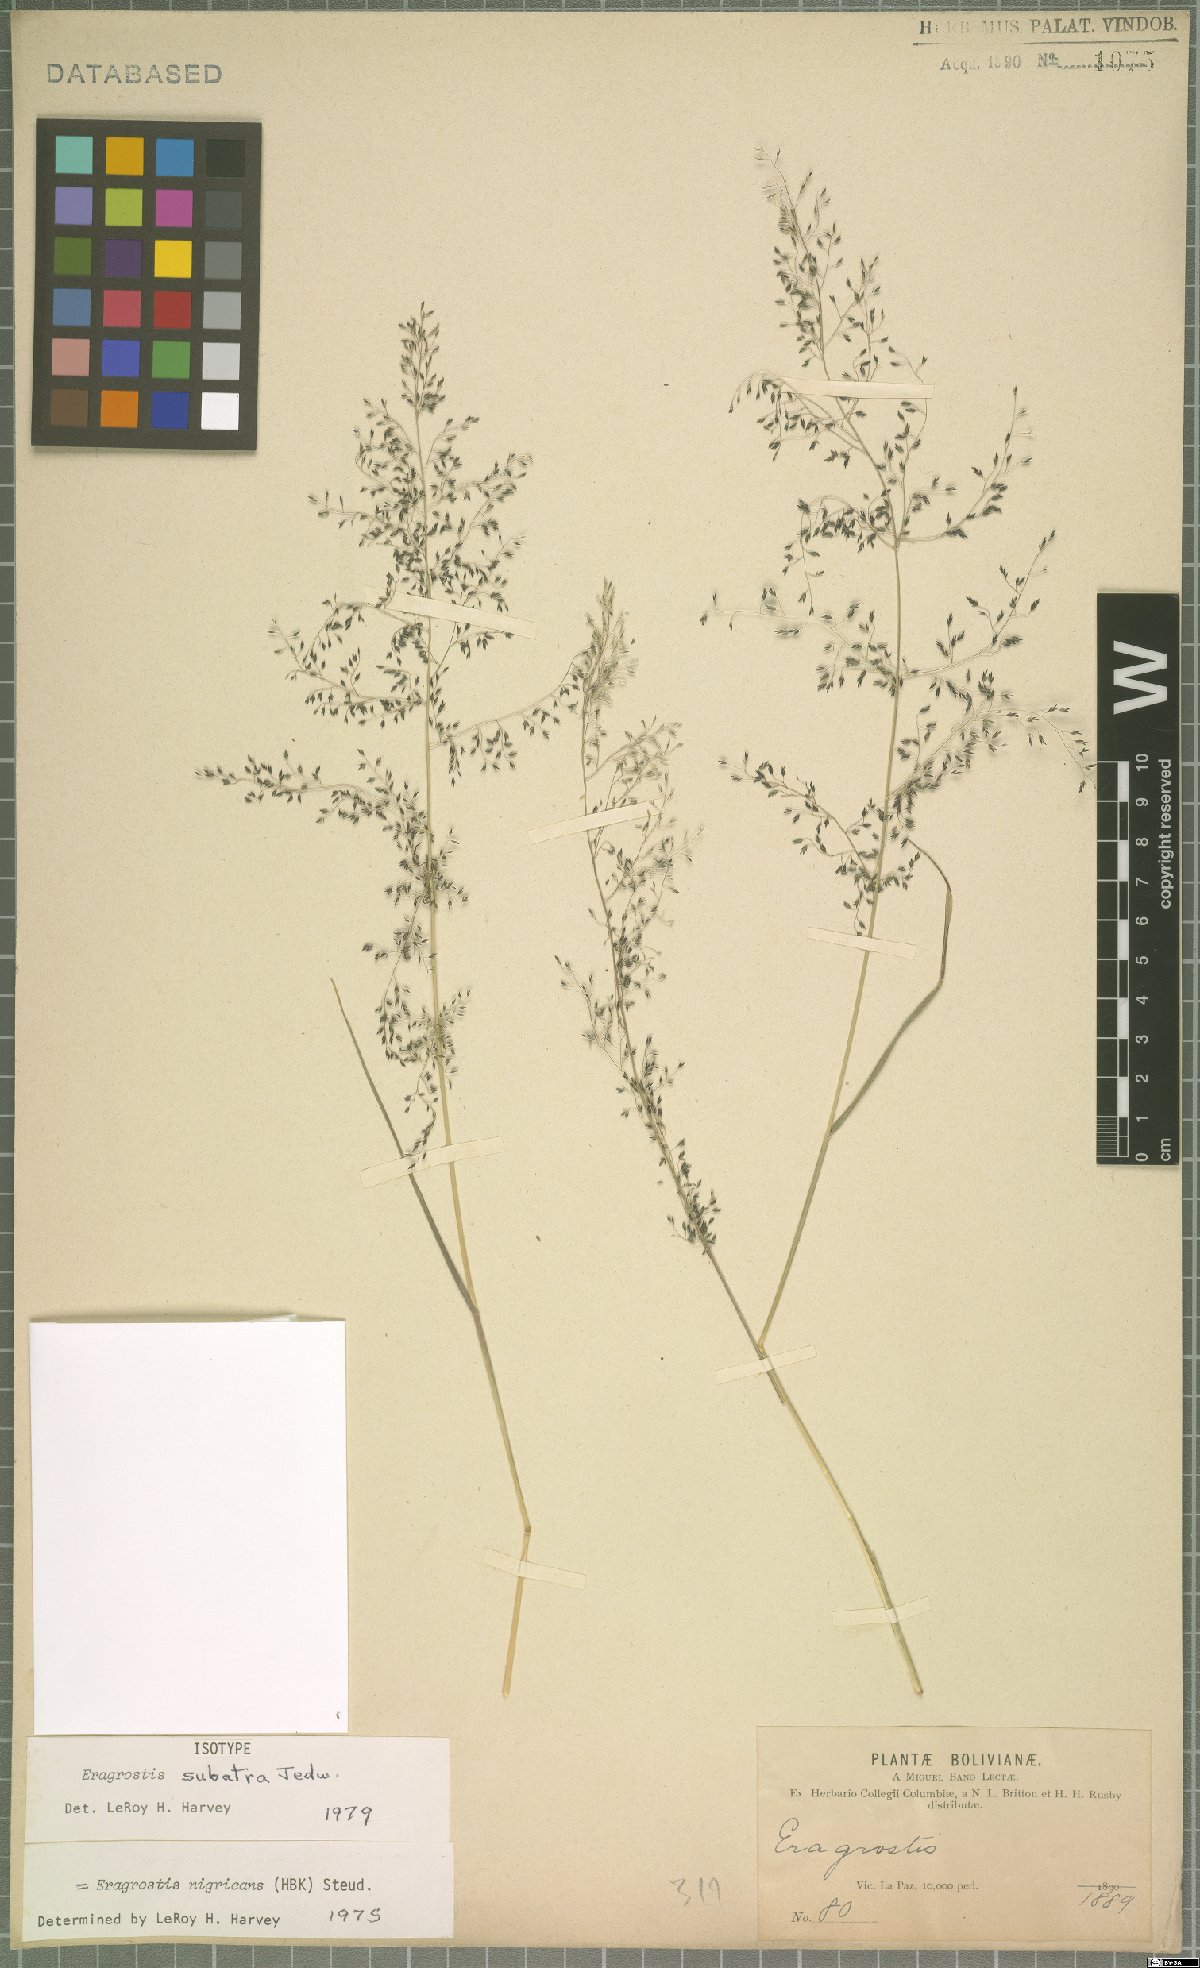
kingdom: Plantae
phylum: Tracheophyta
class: Liliopsida
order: Poales
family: Poaceae
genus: Eragrostis
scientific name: Eragrostis nigricans
